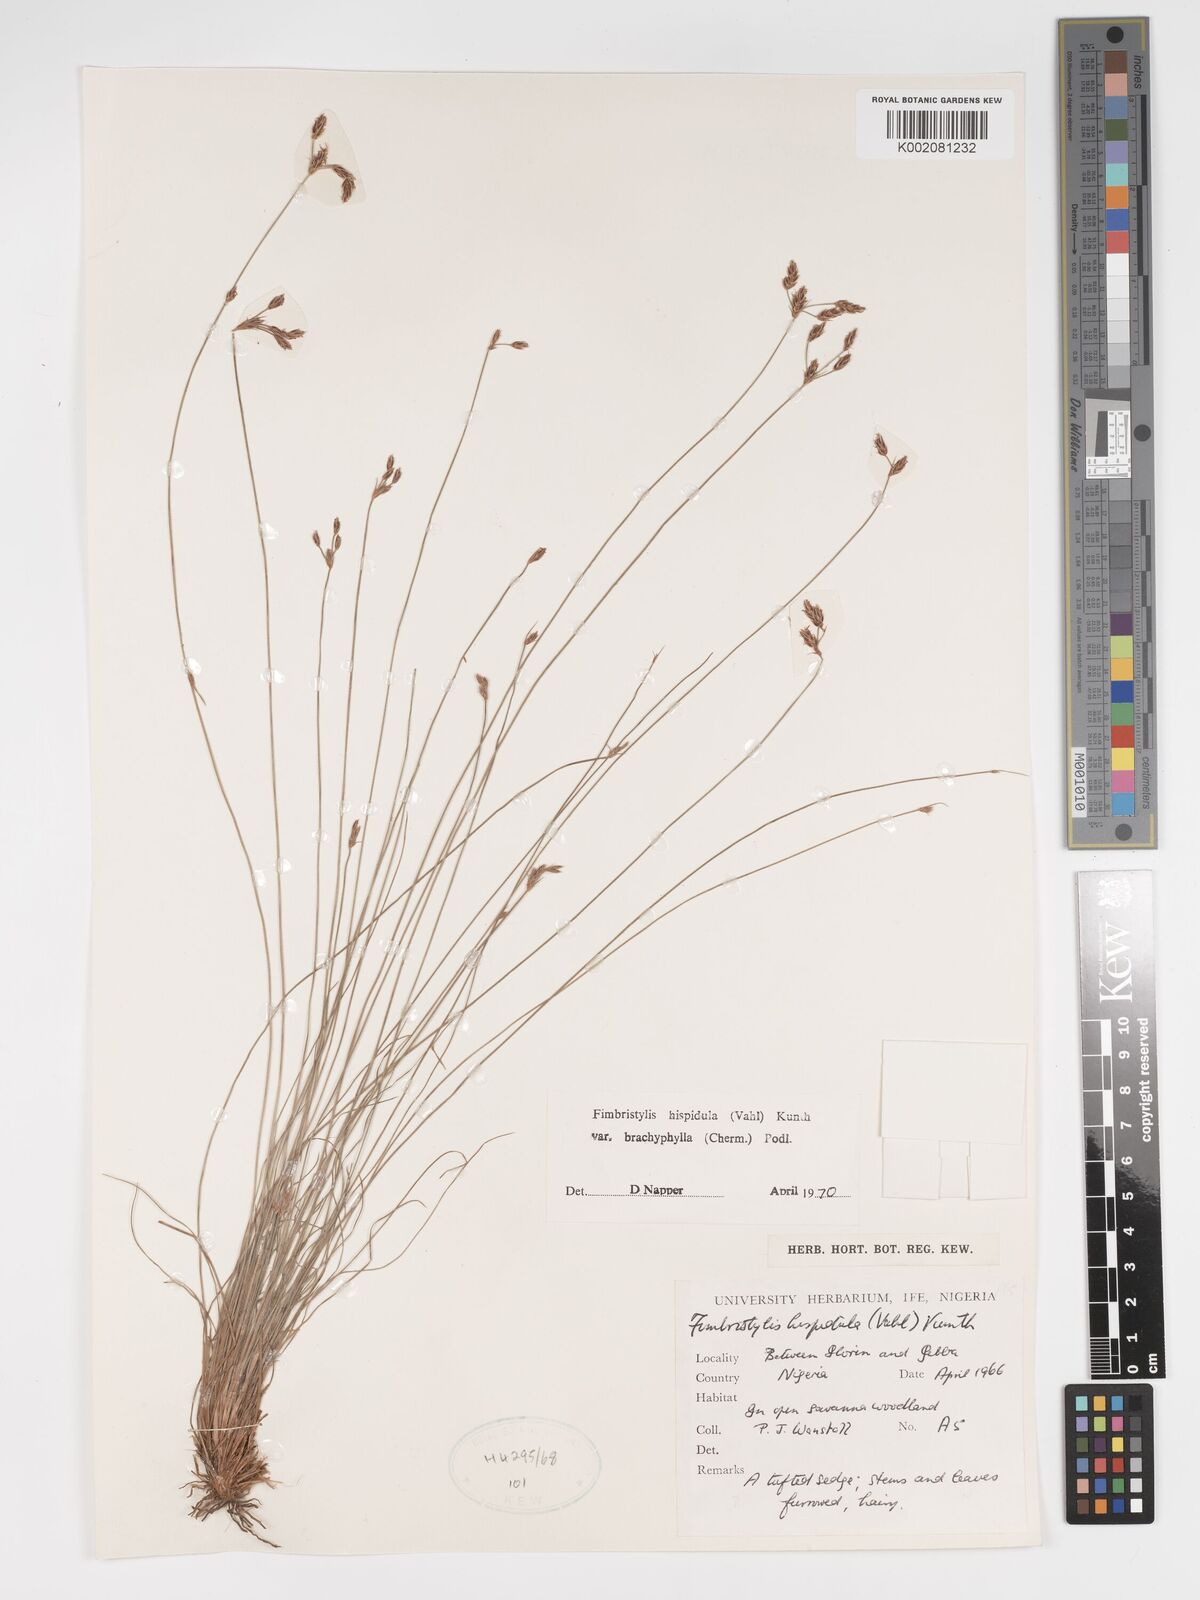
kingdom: Plantae
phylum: Tracheophyta
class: Liliopsida
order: Poales
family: Cyperaceae
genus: Bulbostylis
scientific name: Bulbostylis hispidula
